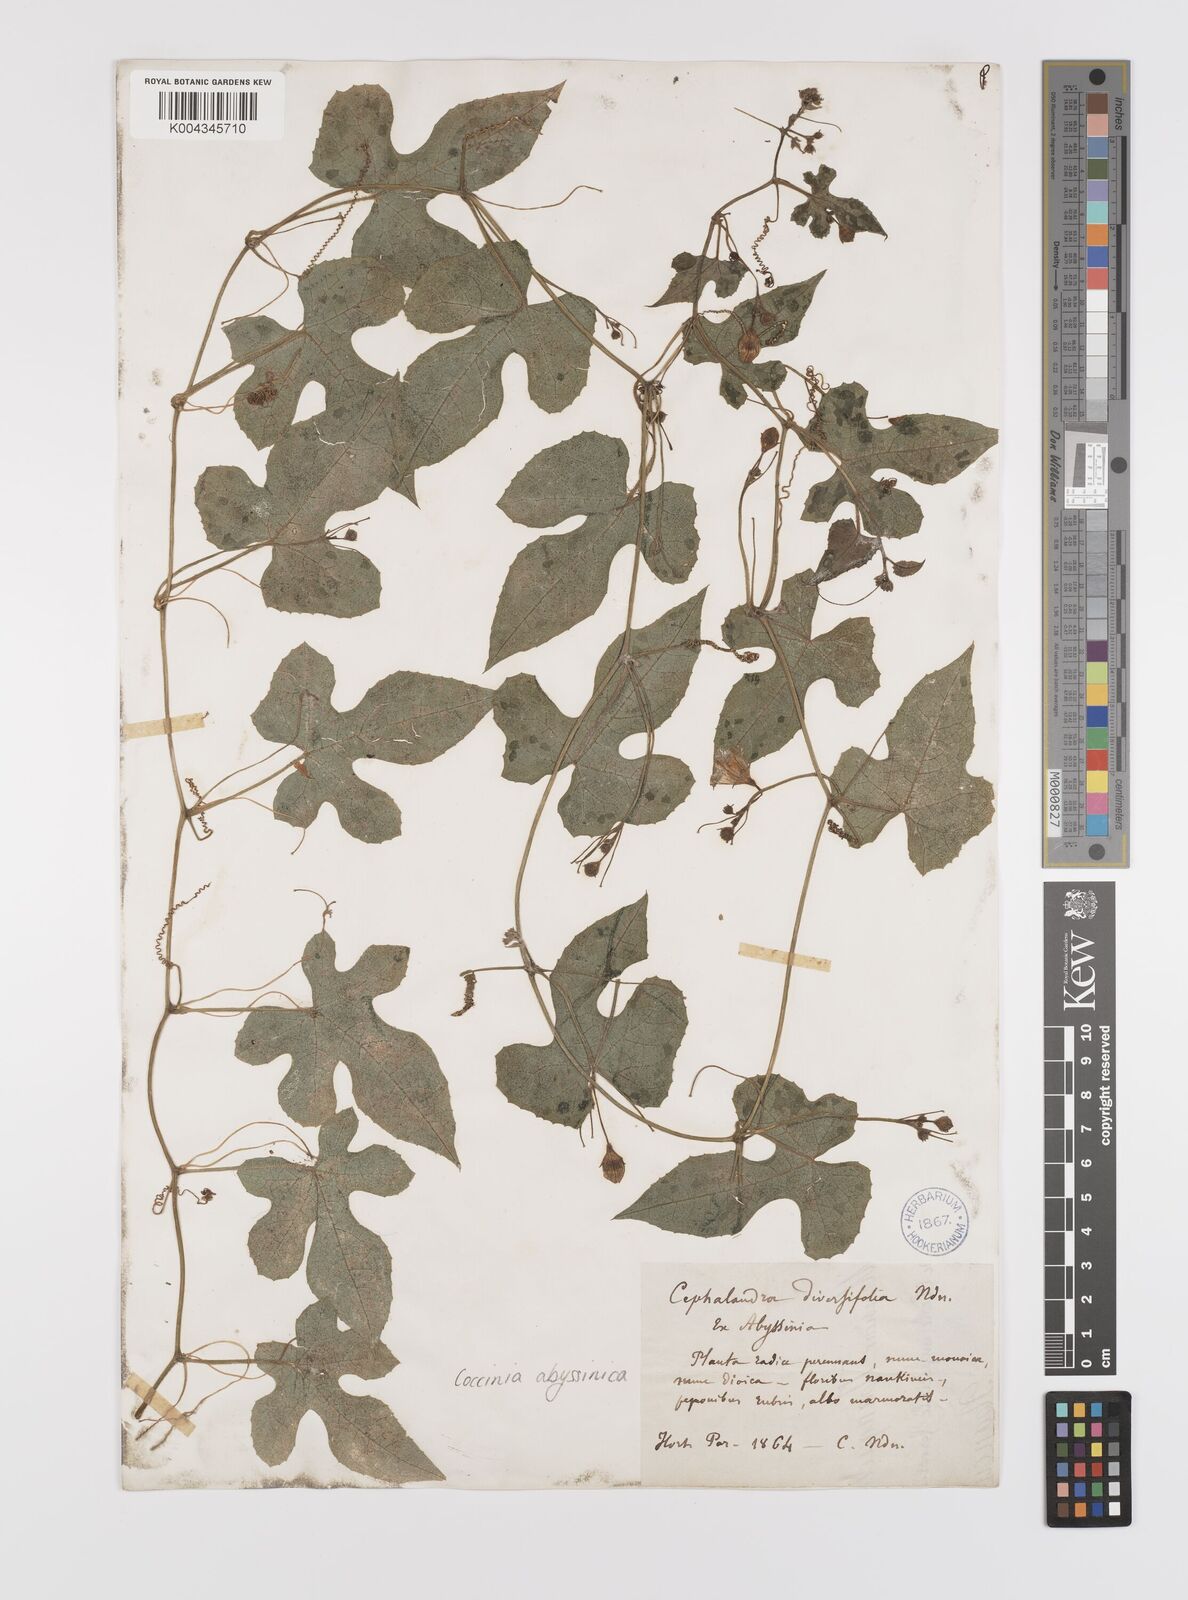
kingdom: Plantae
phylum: Tracheophyta
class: Magnoliopsida
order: Cucurbitales
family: Cucurbitaceae
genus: Coccinia
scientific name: Coccinia abyssinica
